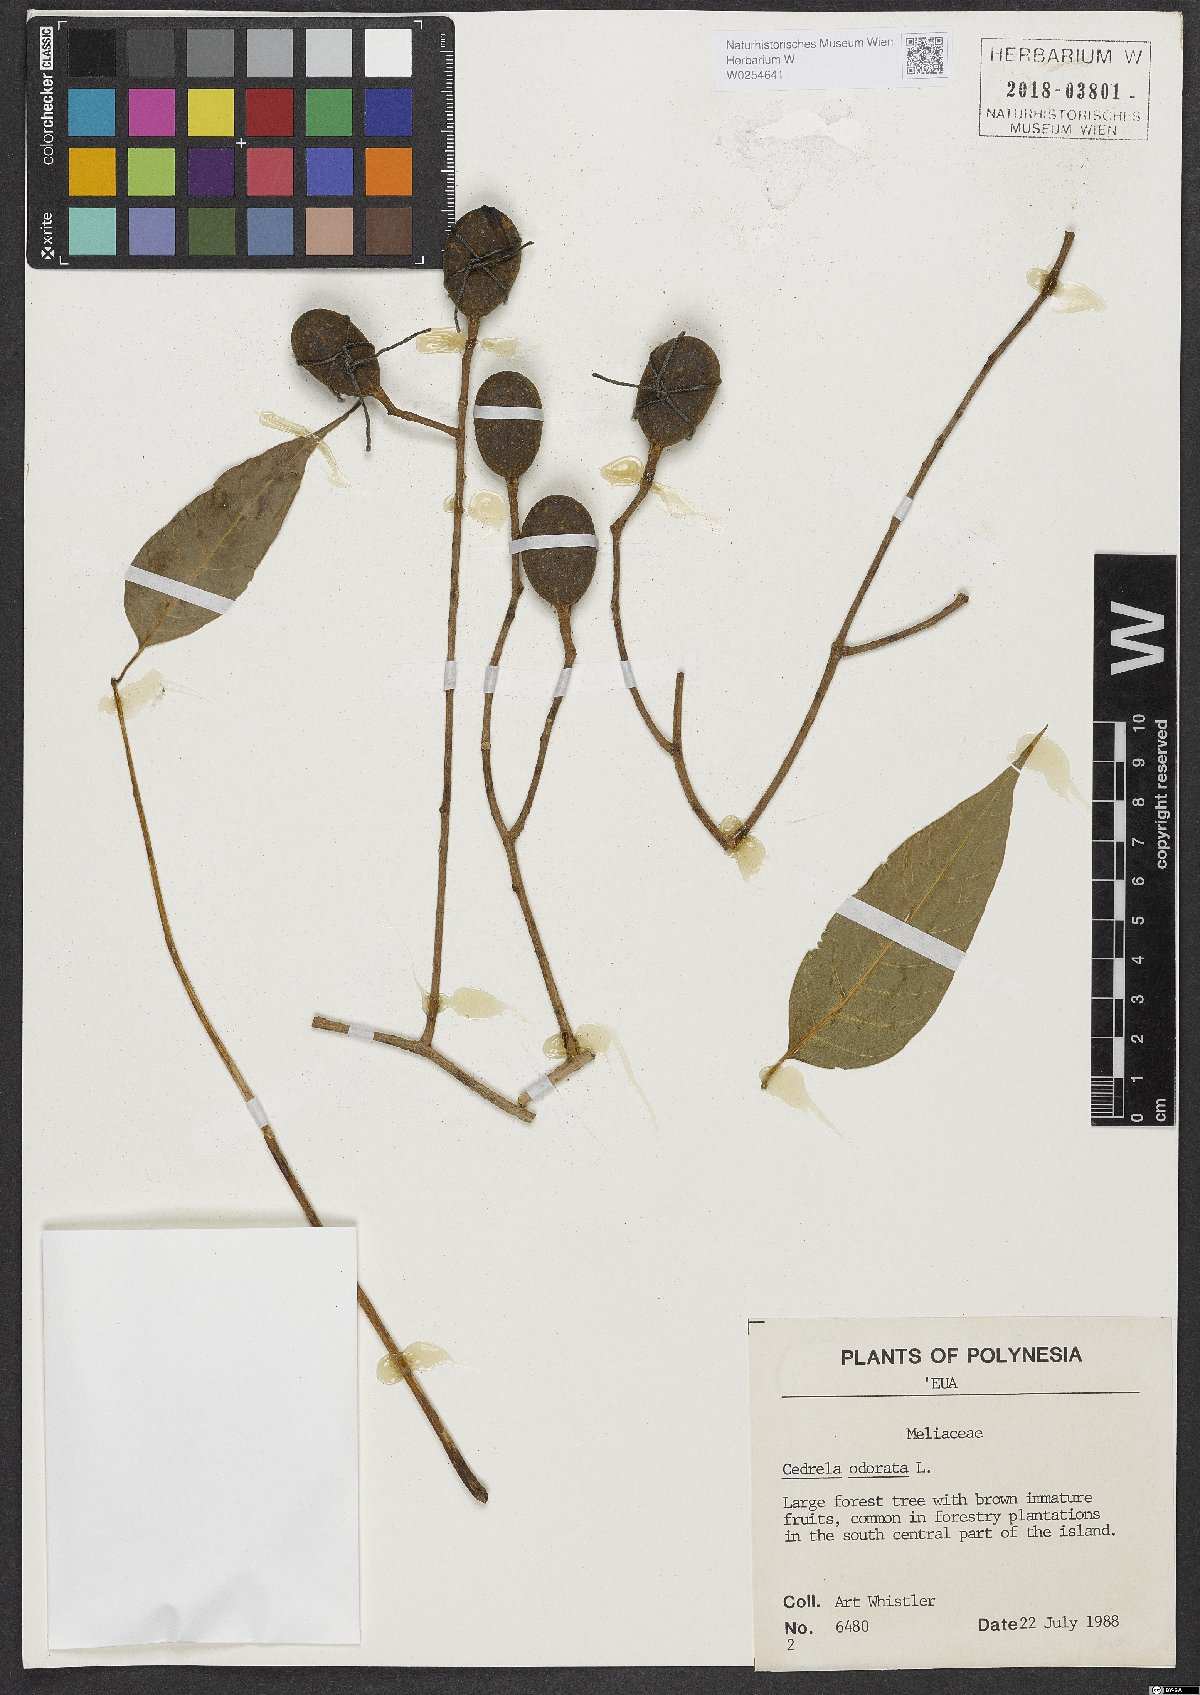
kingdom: Plantae
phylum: Tracheophyta
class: Magnoliopsida
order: Sapindales
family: Meliaceae
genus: Cedrela
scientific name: Cedrela odorata
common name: Red cedar
